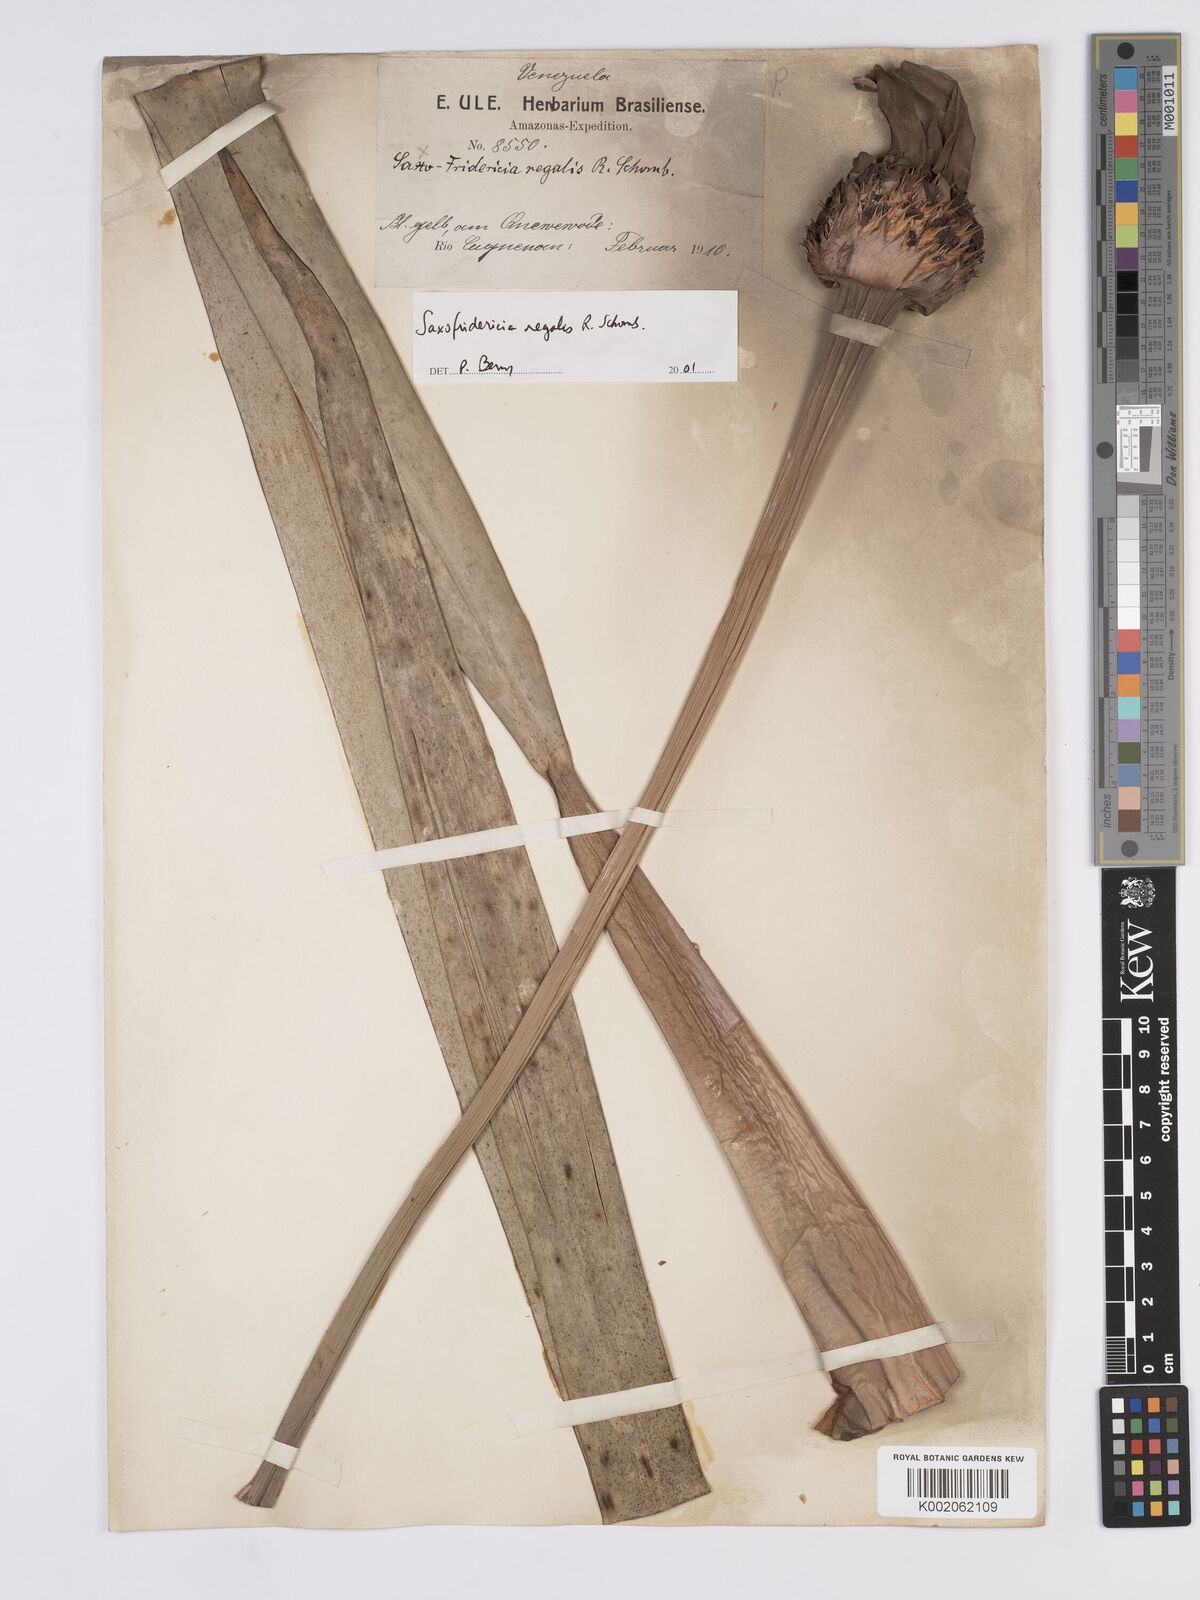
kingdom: Plantae
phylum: Tracheophyta
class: Liliopsida
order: Poales
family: Rapateaceae
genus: Saxofridericia
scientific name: Saxofridericia regalis
